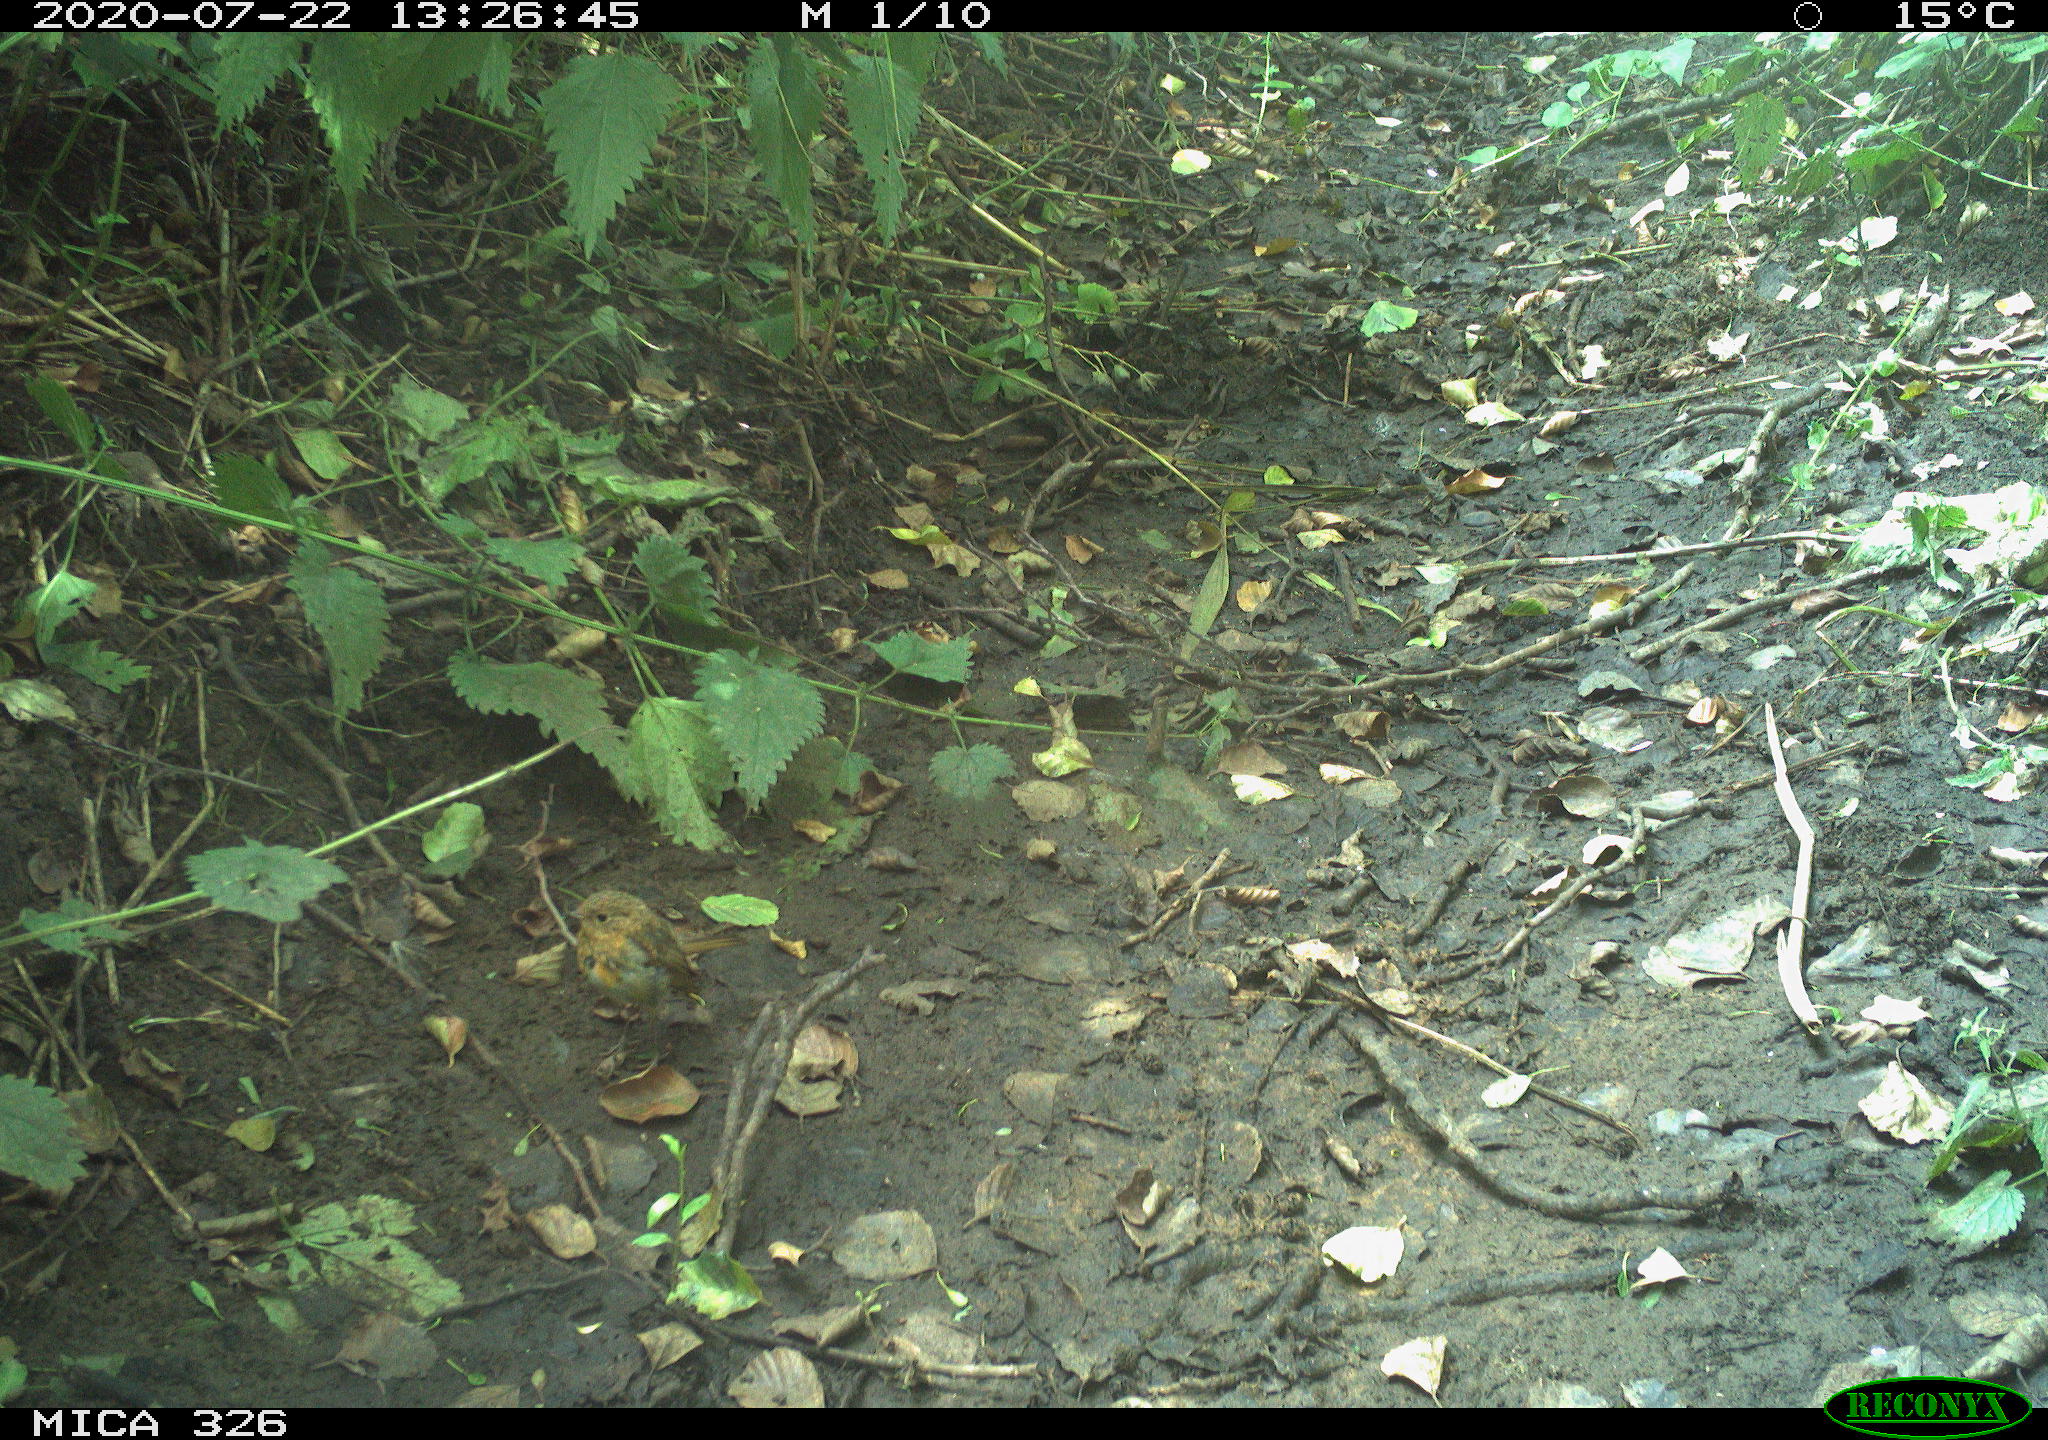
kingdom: Animalia
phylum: Chordata
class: Aves
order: Passeriformes
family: Muscicapidae
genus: Erithacus
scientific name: Erithacus rubecula
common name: European robin
